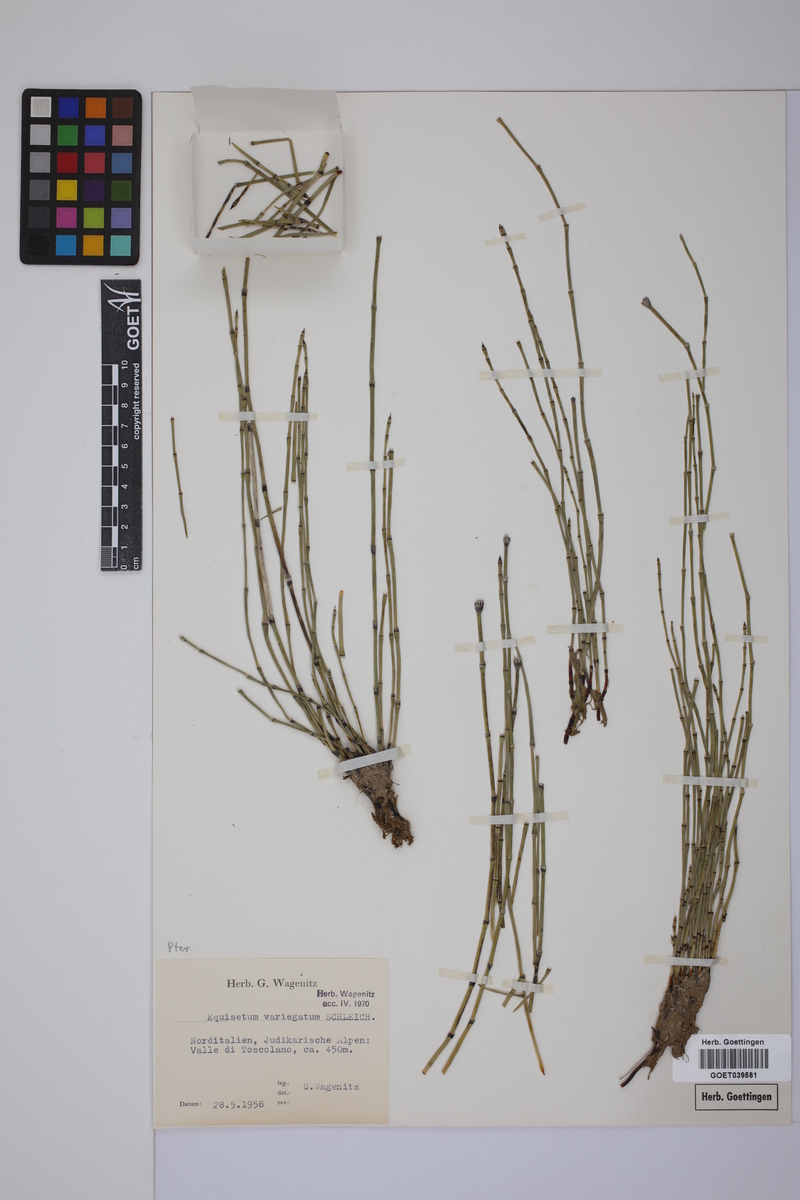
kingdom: Plantae
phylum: Tracheophyta
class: Polypodiopsida
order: Equisetales
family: Equisetaceae
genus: Equisetum
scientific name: Equisetum variegatum
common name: Variegated horsetail
